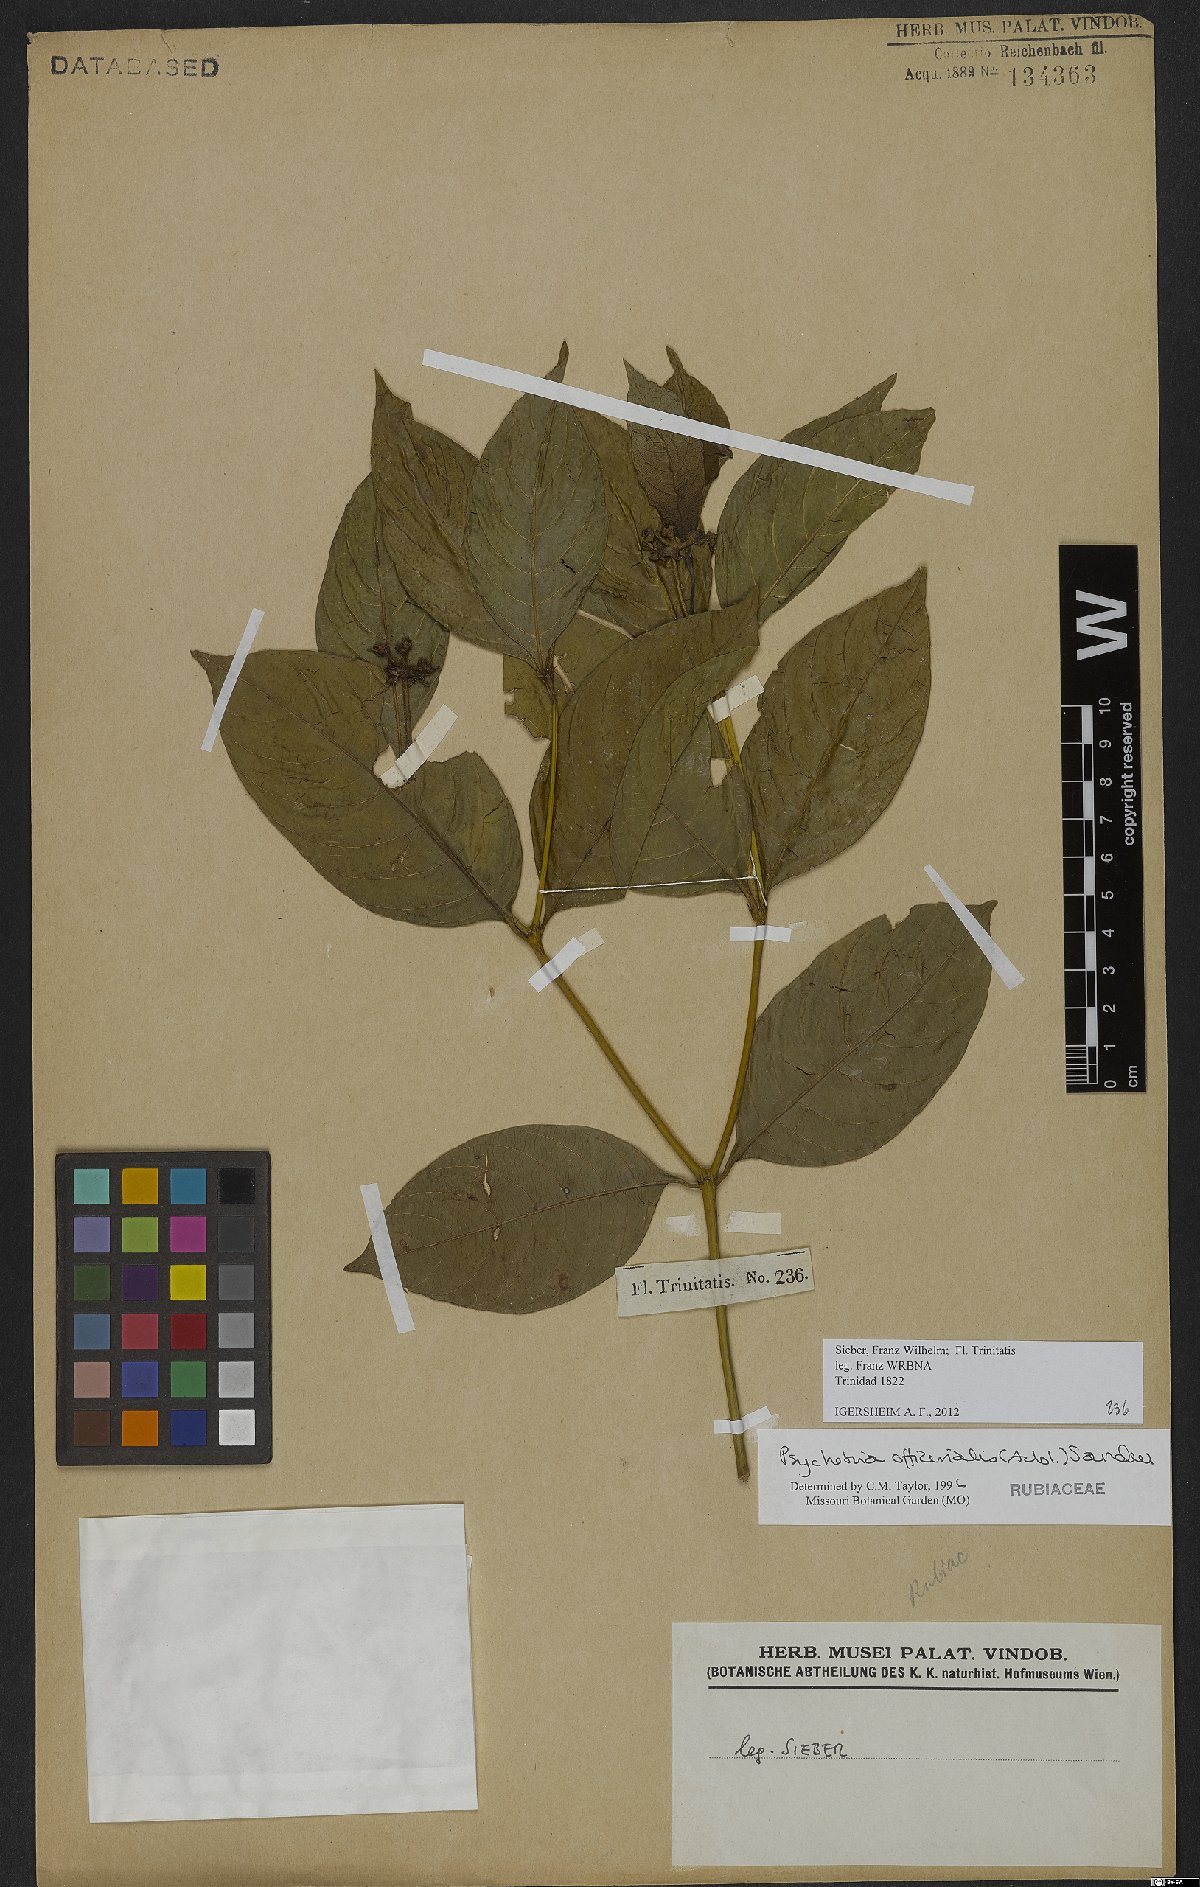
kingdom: Plantae
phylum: Tracheophyta
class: Magnoliopsida
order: Gentianales
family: Rubiaceae
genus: Palicourea
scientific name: Palicourea tenerior
